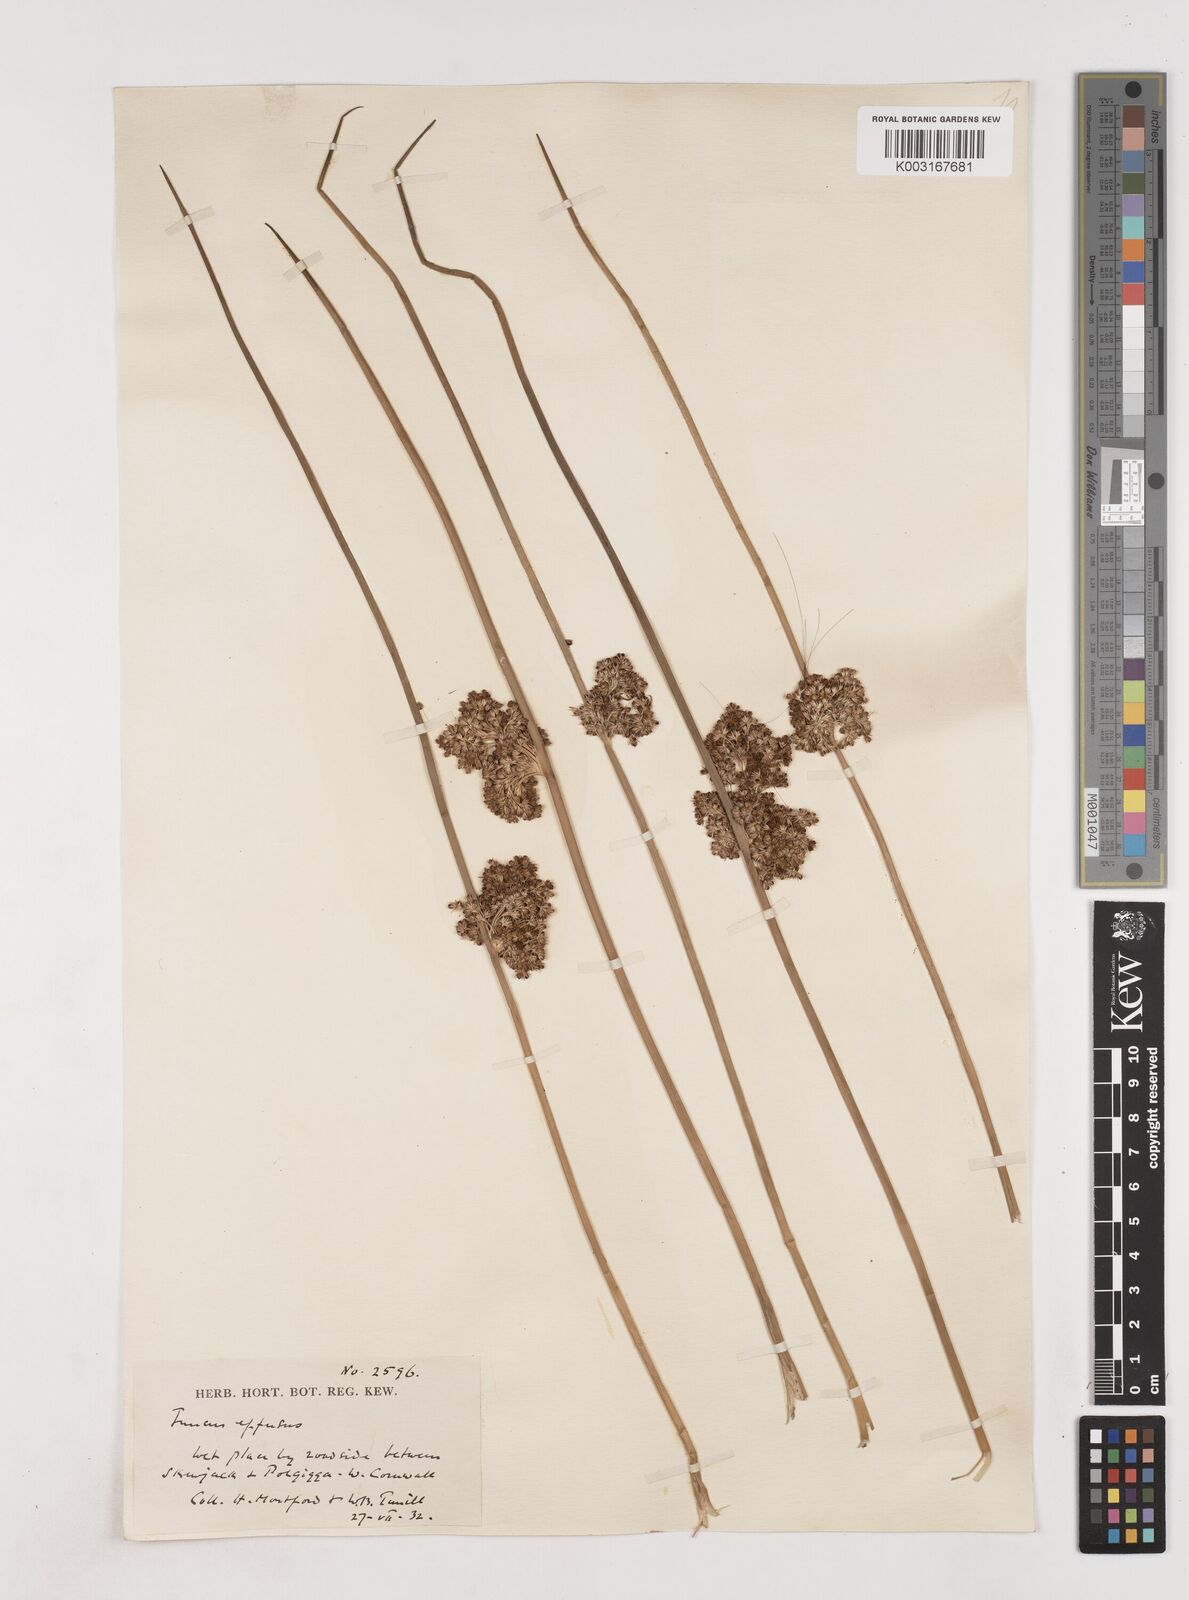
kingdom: Plantae
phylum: Tracheophyta
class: Liliopsida
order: Poales
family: Juncaceae
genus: Juncus
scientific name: Juncus effusus
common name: Soft rush
